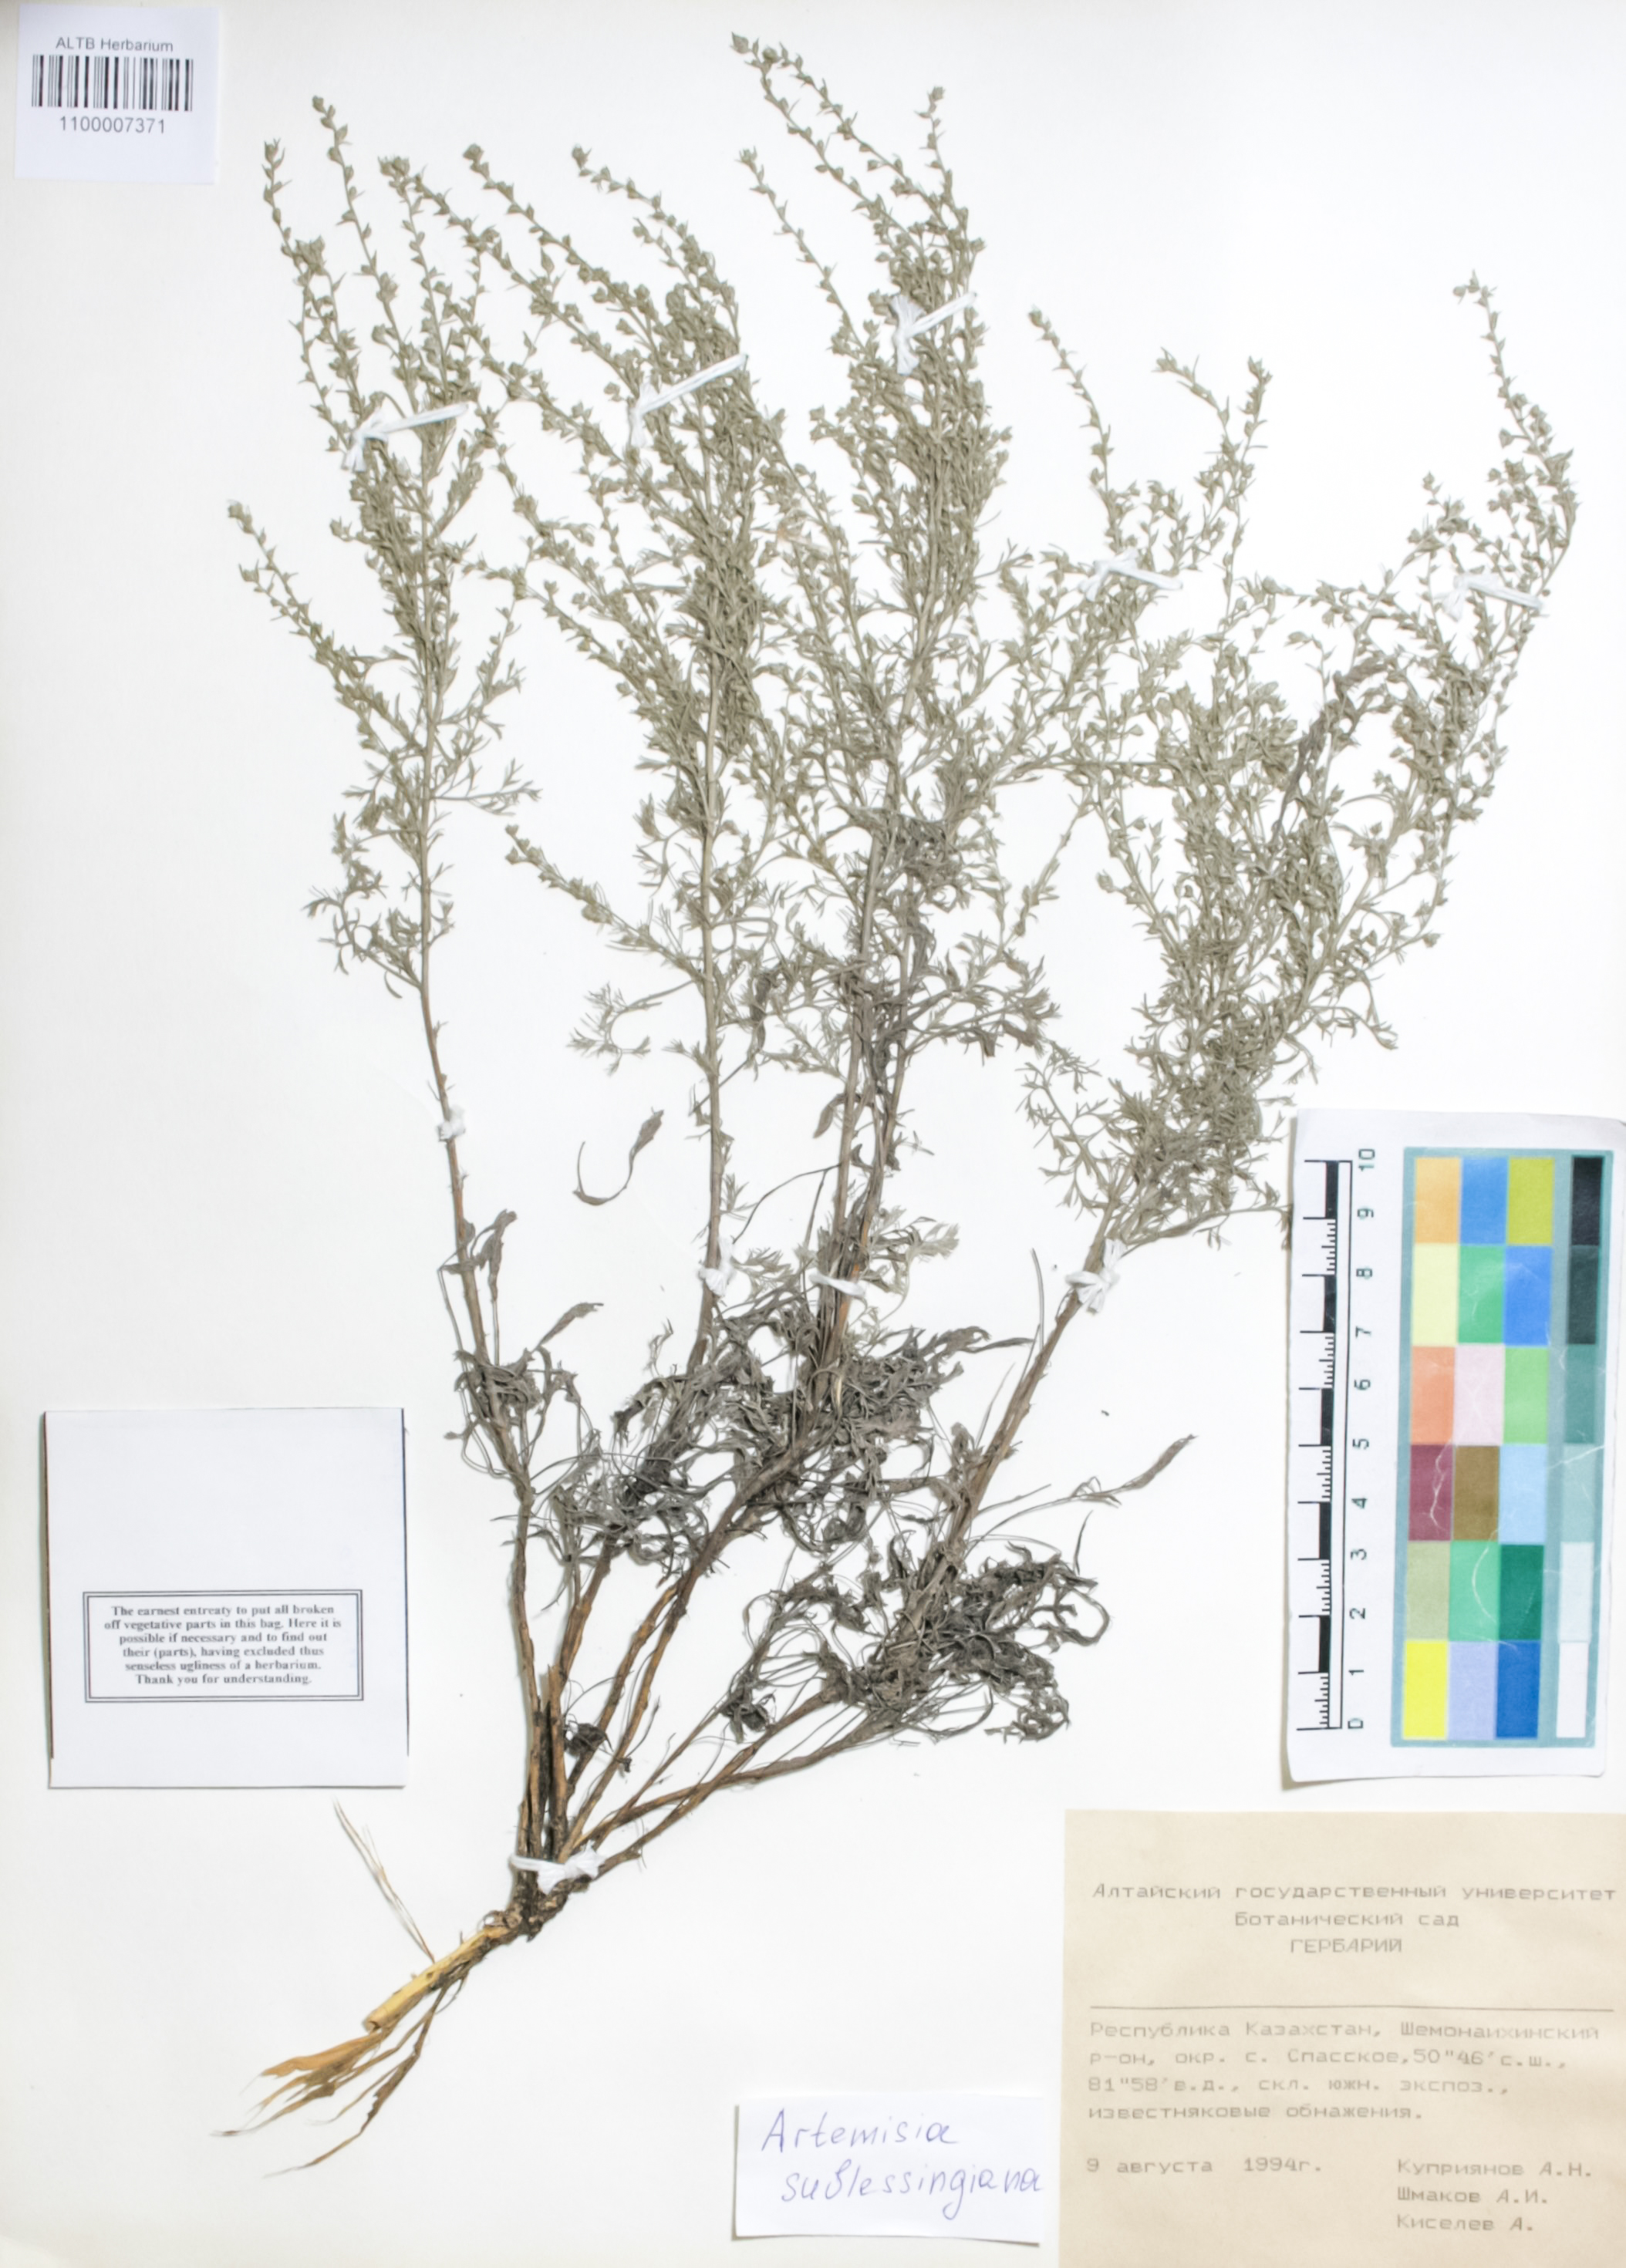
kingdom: Plantae
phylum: Tracheophyta
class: Magnoliopsida
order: Asterales
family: Asteraceae
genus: Artemisia
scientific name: Artemisia sublessingiana
